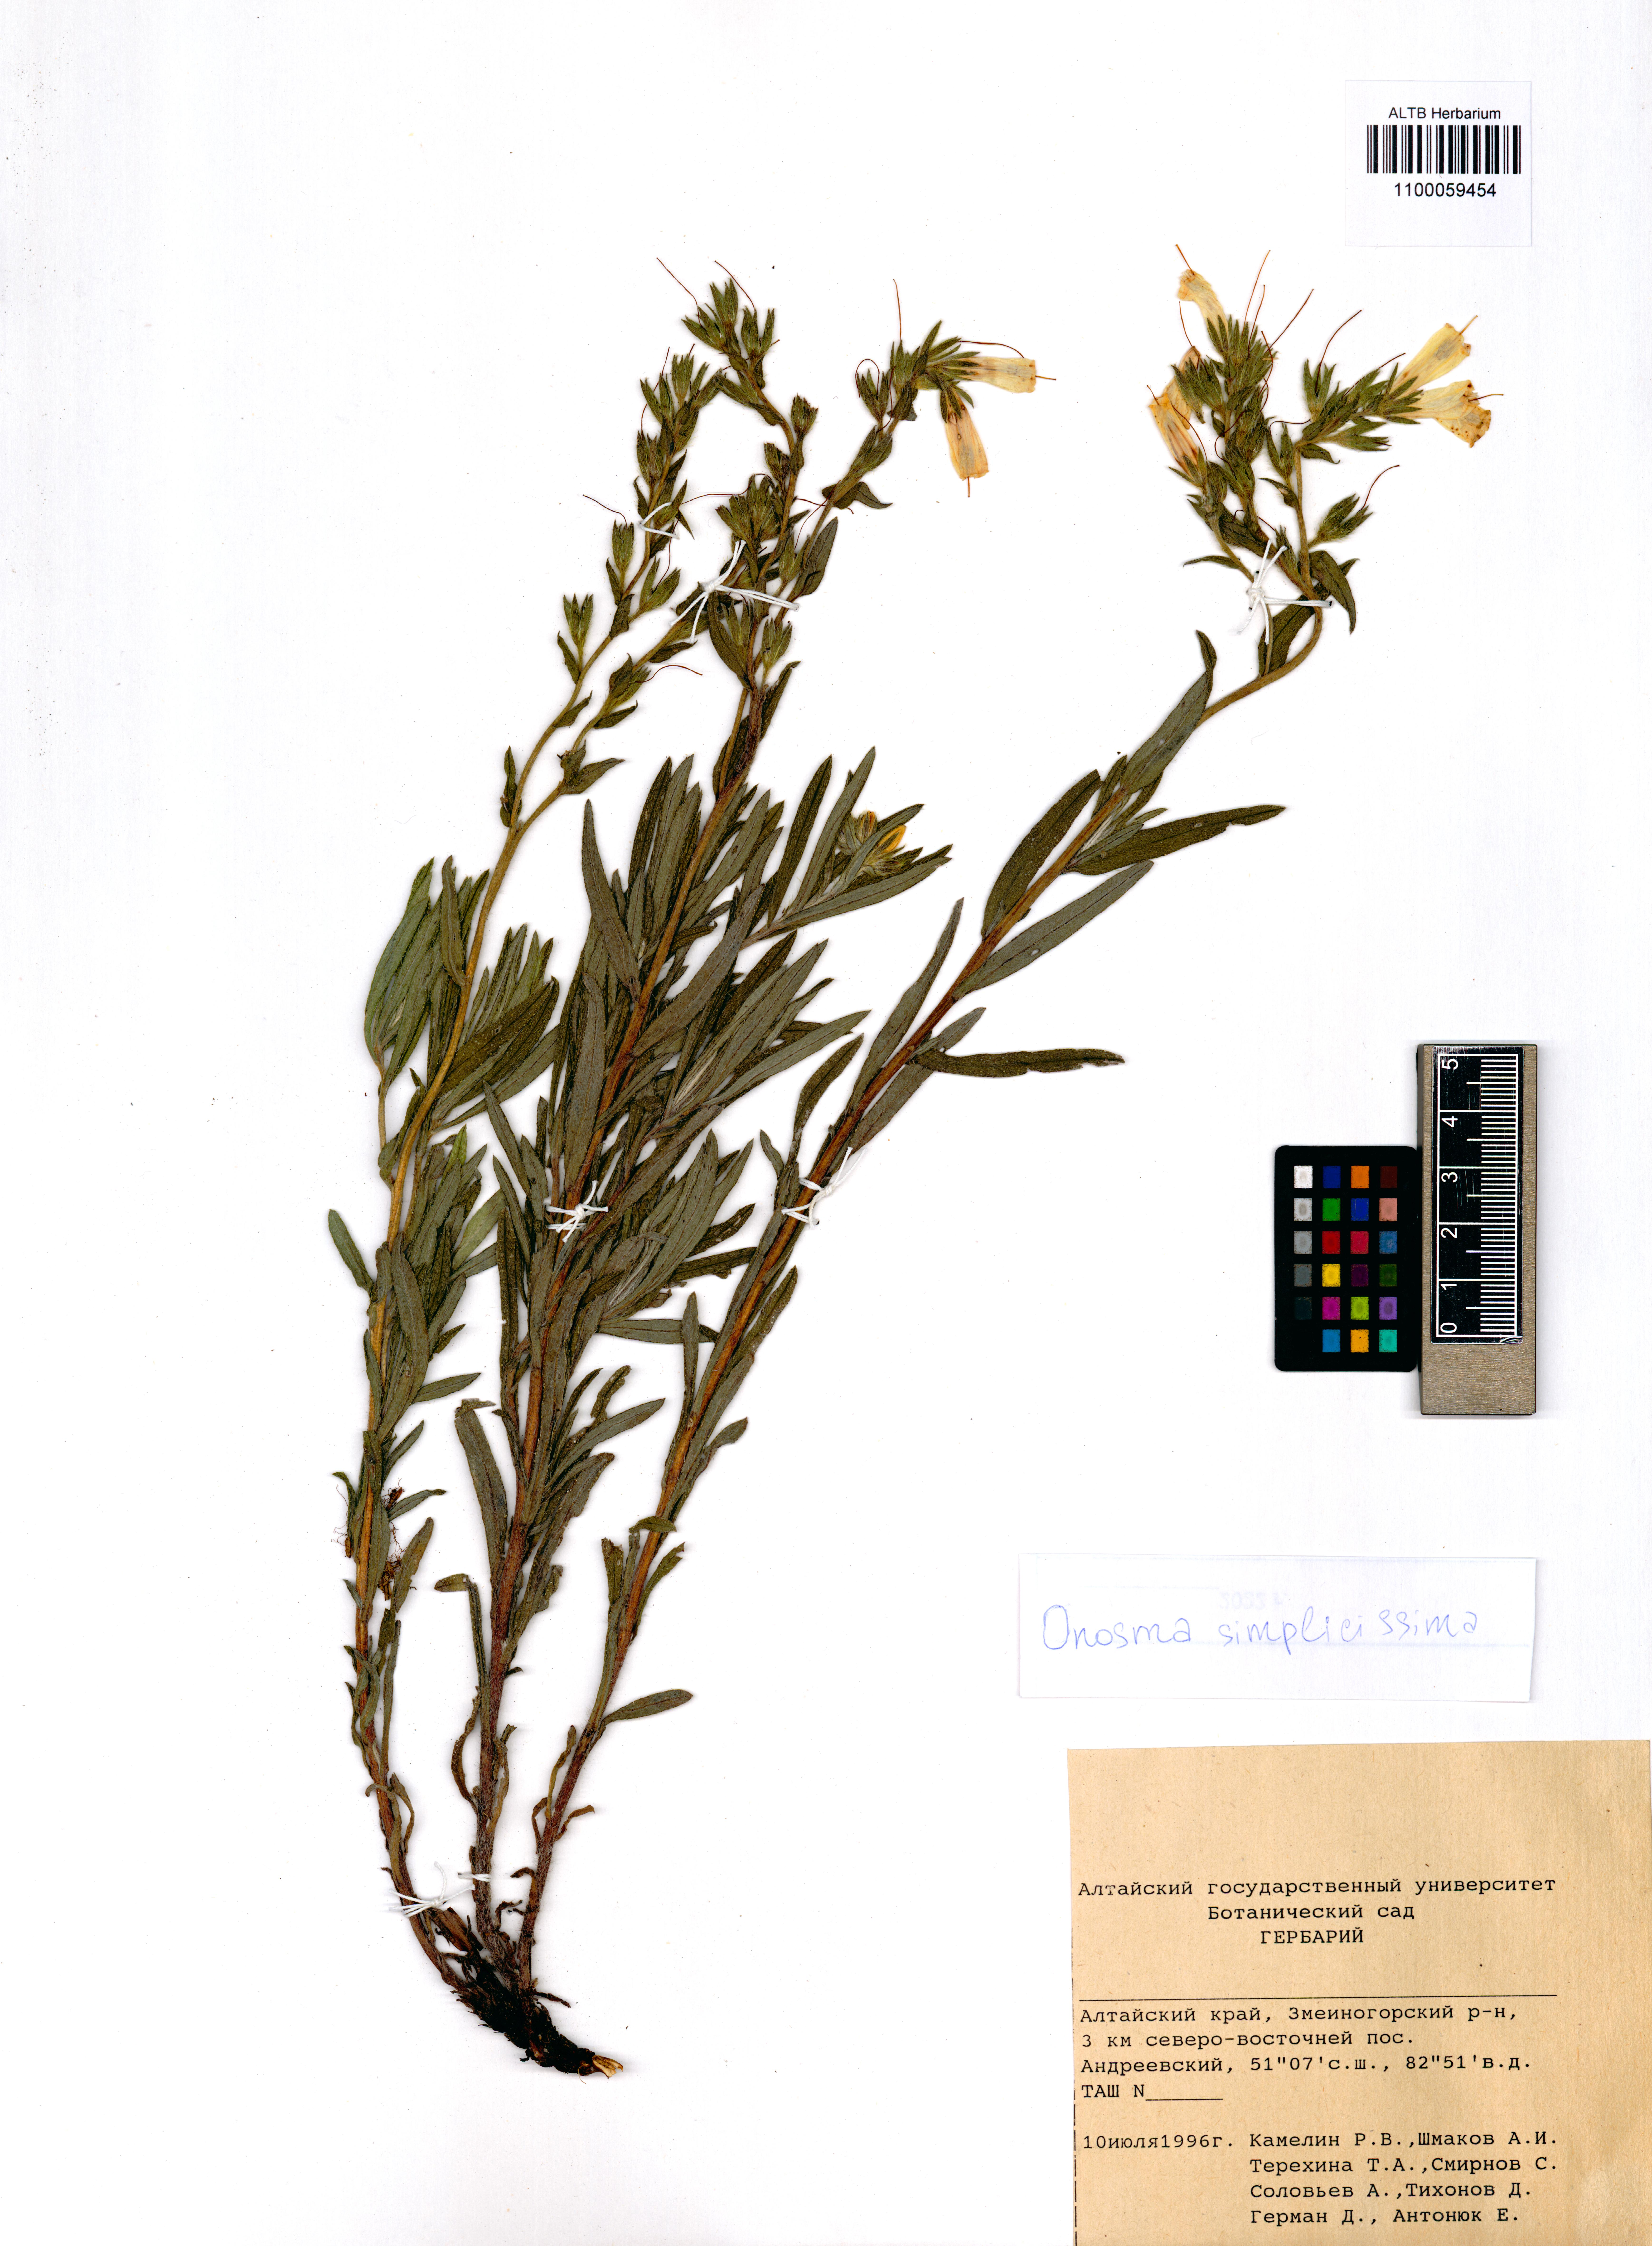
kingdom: Plantae
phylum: Tracheophyta
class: Magnoliopsida
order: Boraginales
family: Boraginaceae
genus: Onosma
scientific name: Onosma simplicissima
